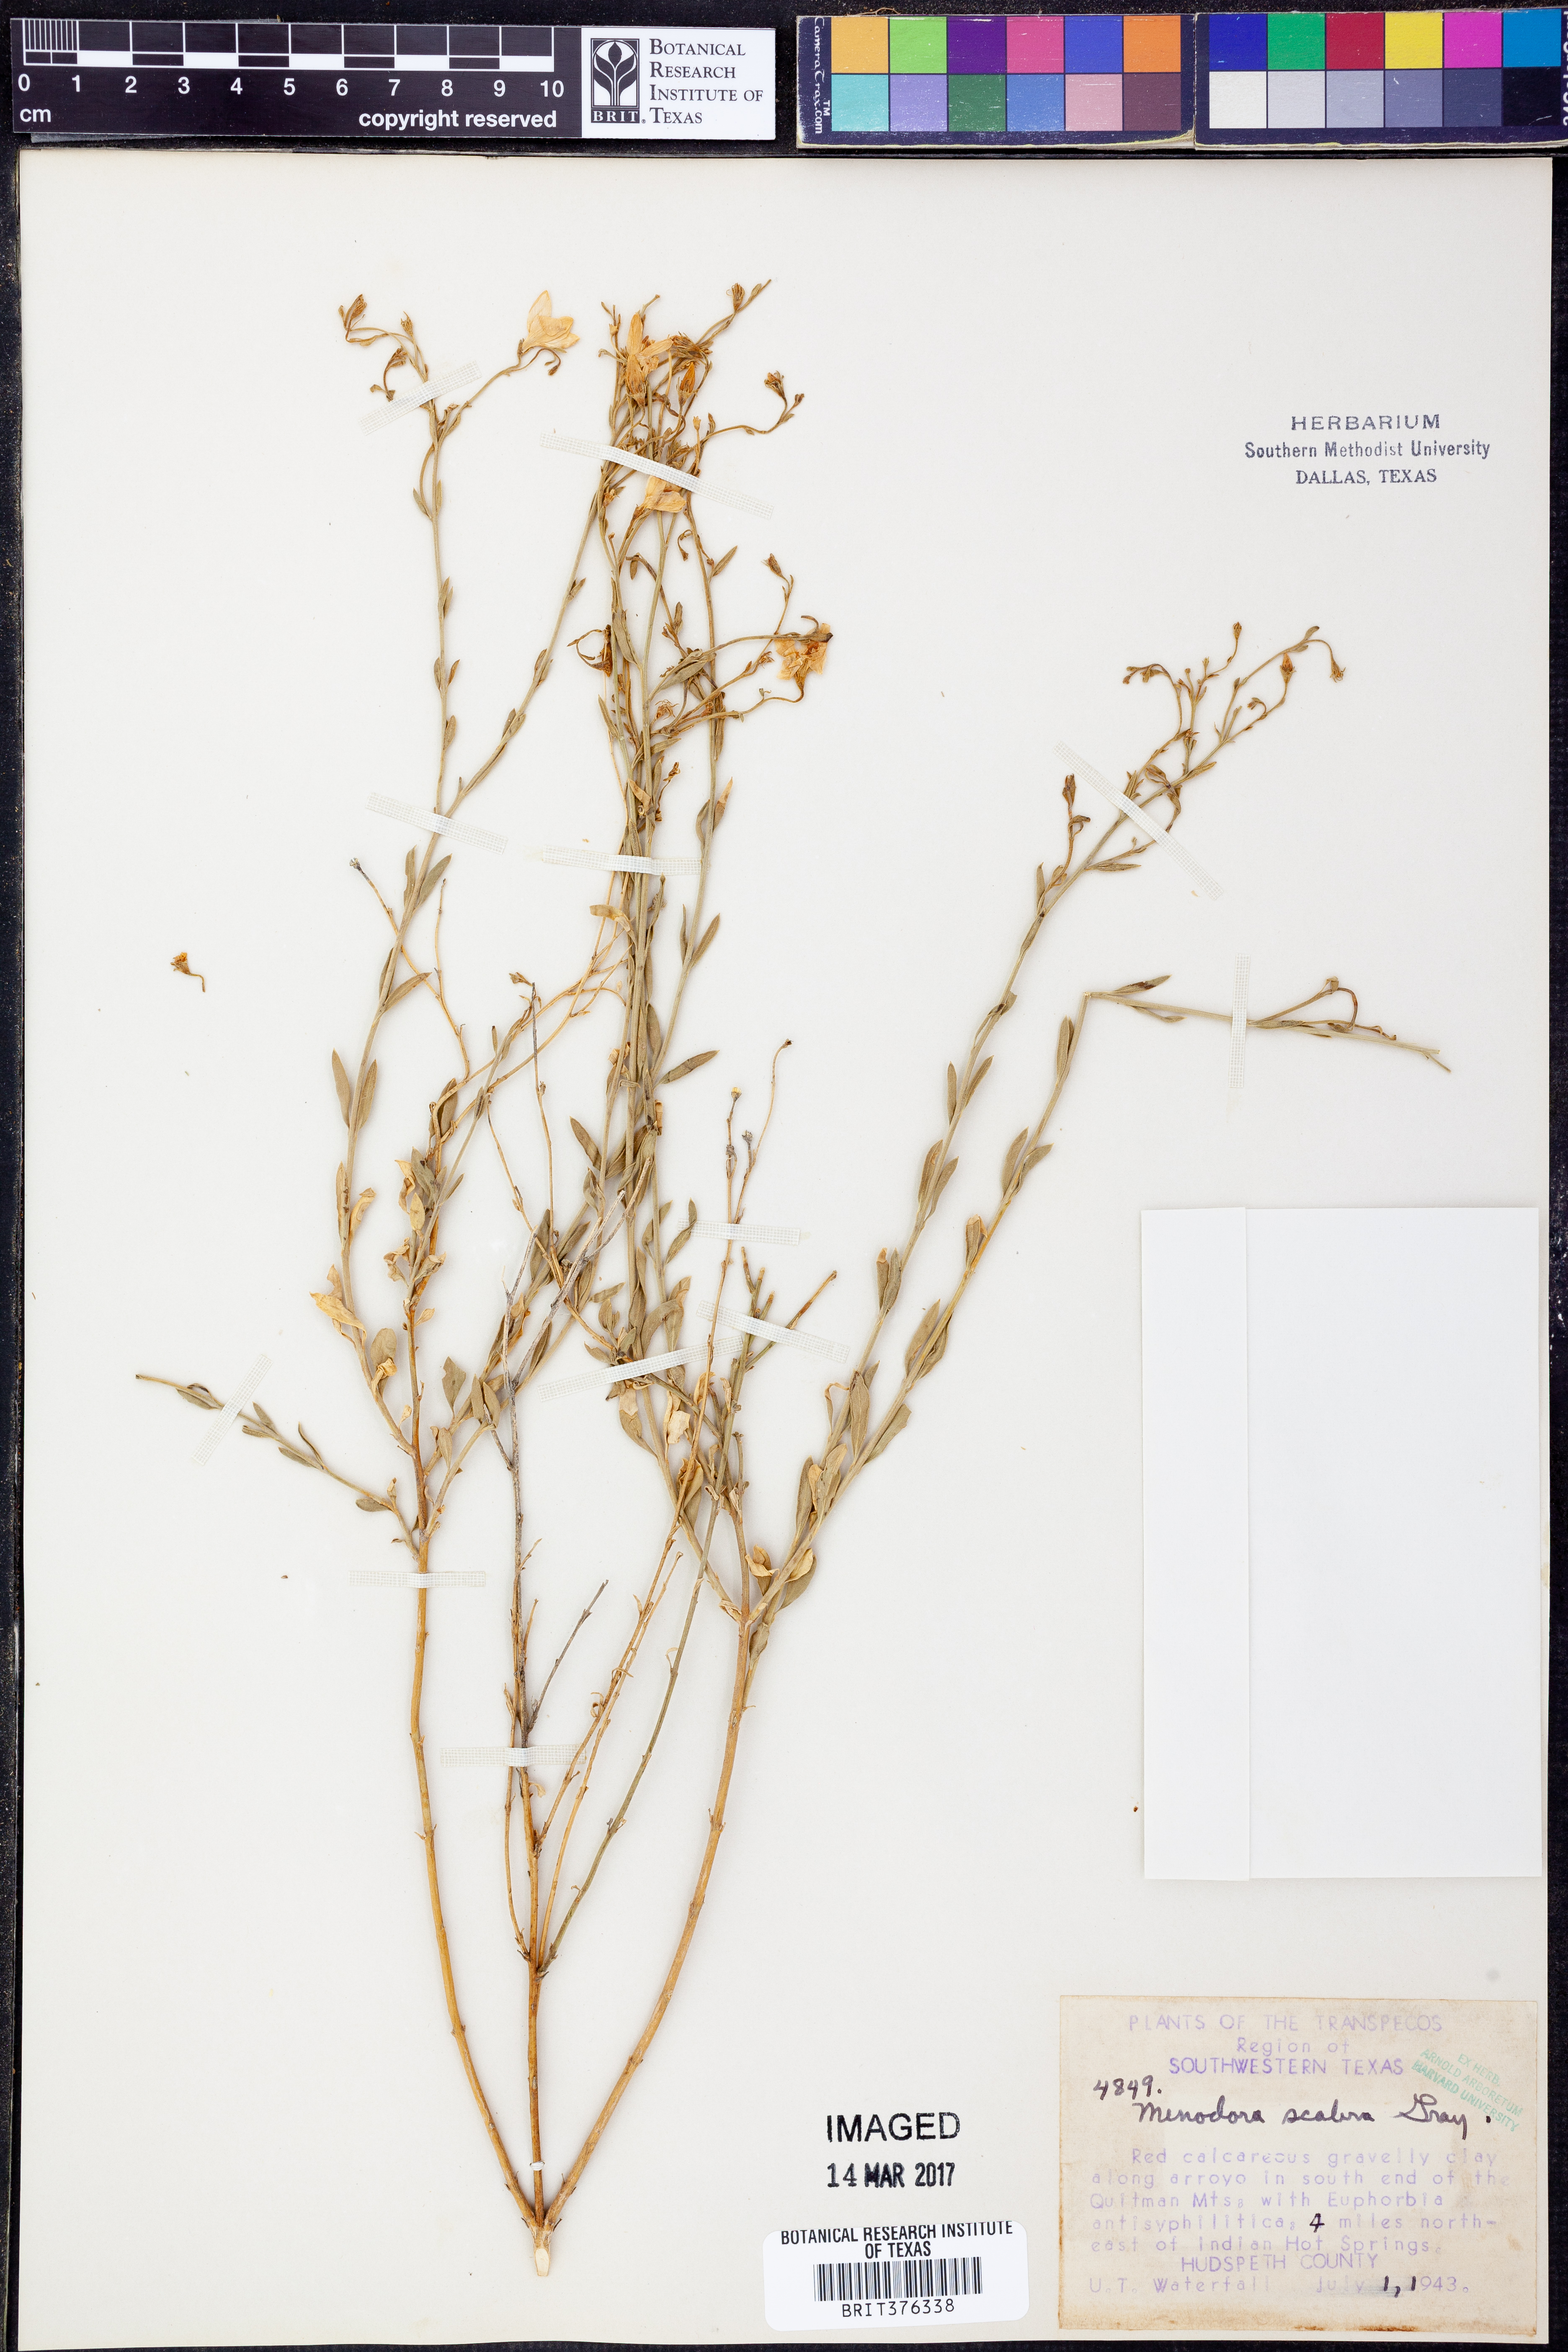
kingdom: Plantae
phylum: Tracheophyta
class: Magnoliopsida
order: Lamiales
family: Oleaceae
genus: Menodora
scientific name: Menodora scabra
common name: Rough menodora
